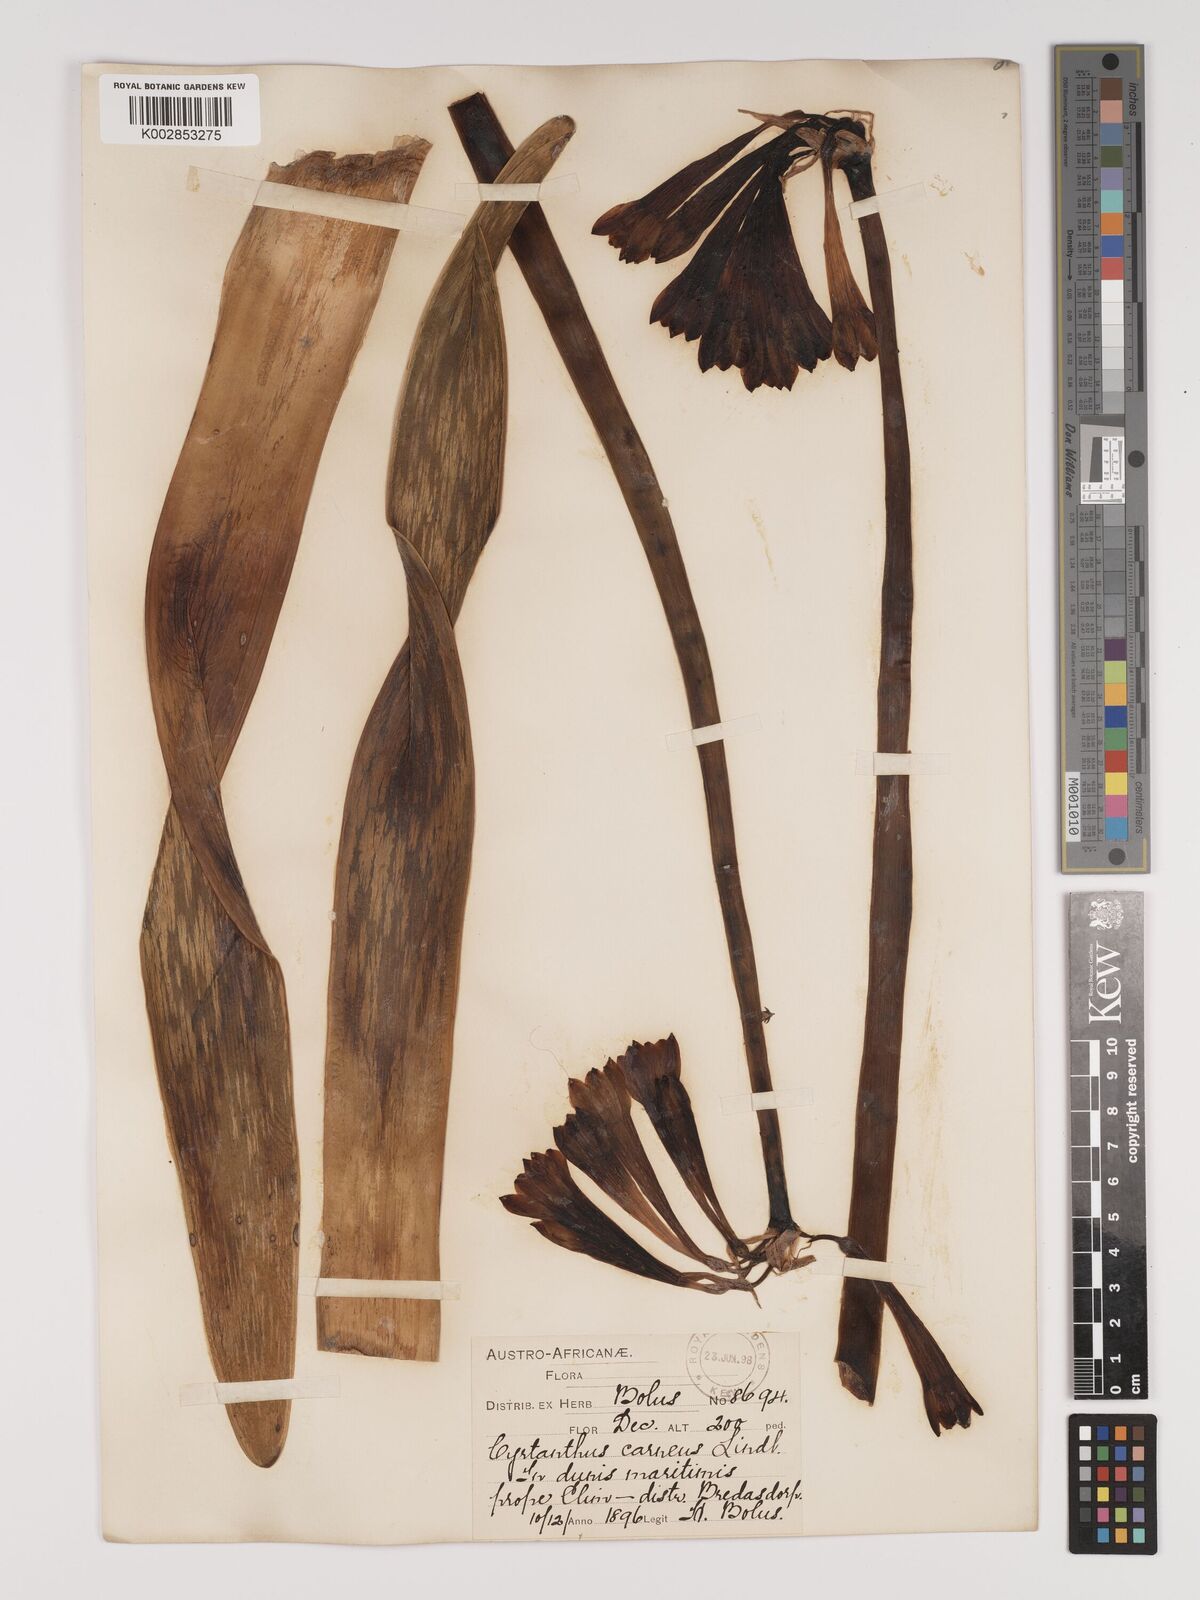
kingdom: Plantae
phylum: Tracheophyta
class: Liliopsida
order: Asparagales
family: Amaryllidaceae
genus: Cyrtanthus
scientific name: Cyrtanthus carneus
